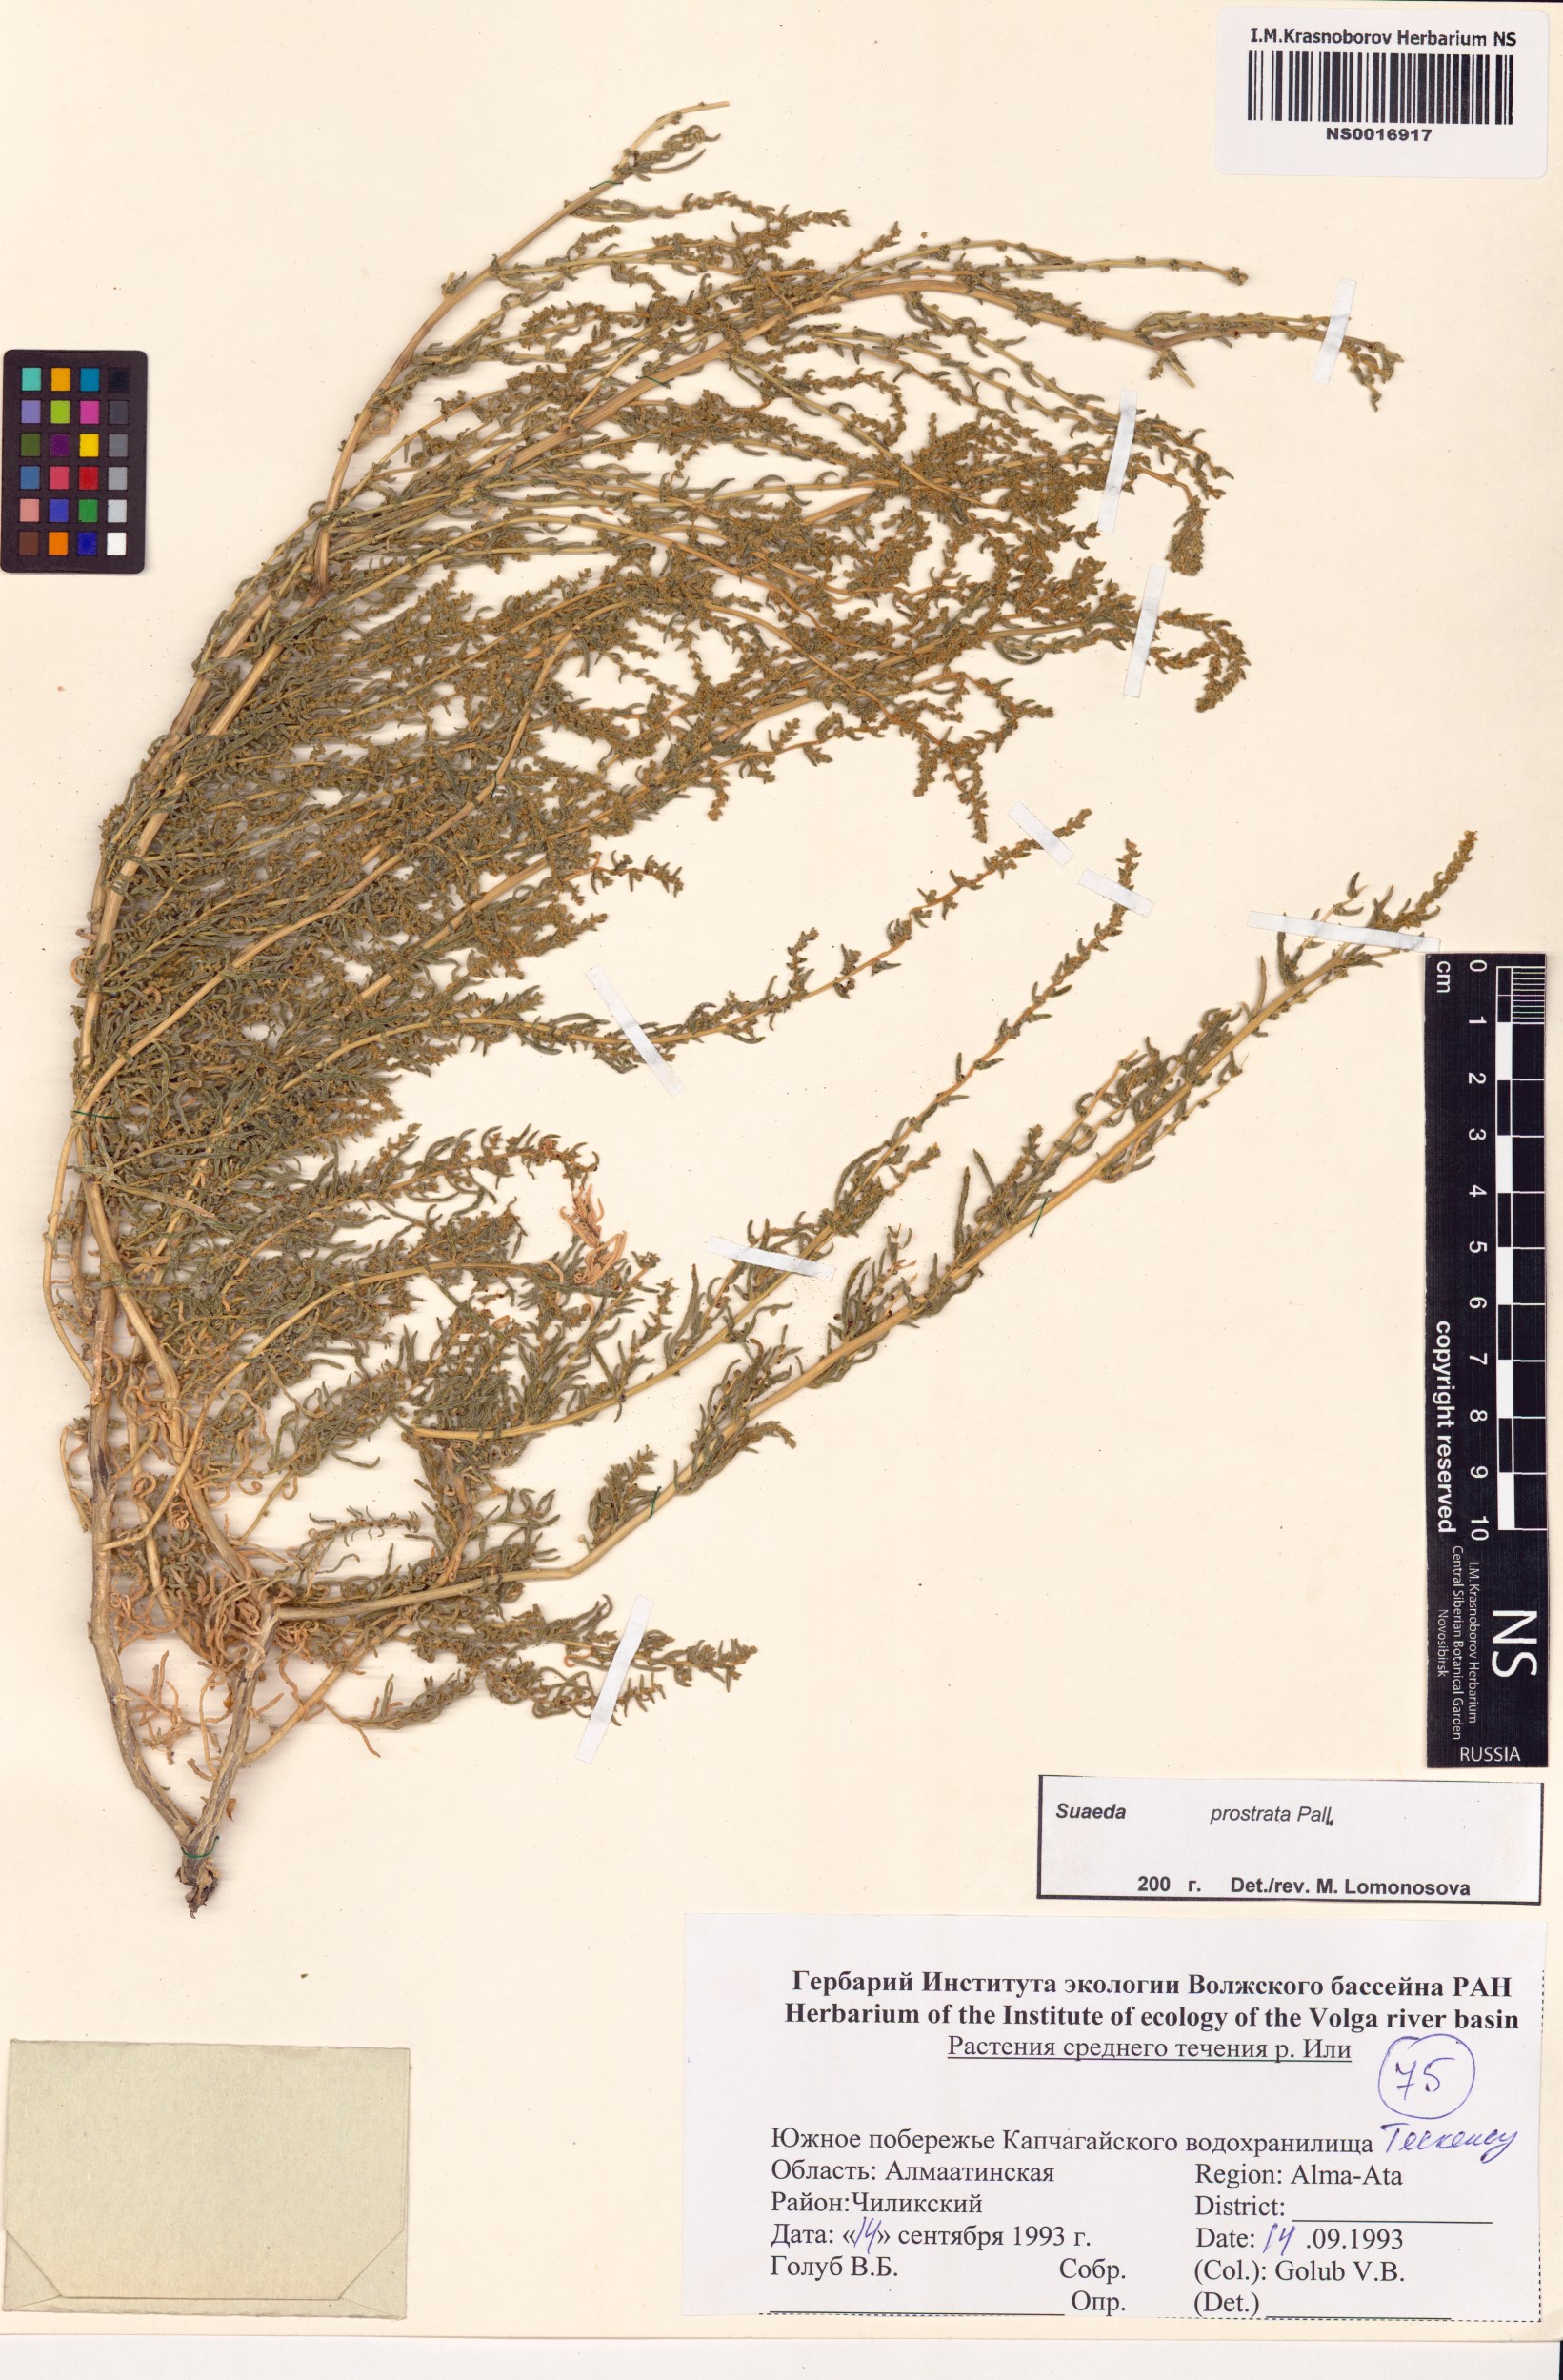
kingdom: Plantae
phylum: Tracheophyta
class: Magnoliopsida
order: Caryophyllales
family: Amaranthaceae
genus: Suaeda
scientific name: Suaeda prostrata
